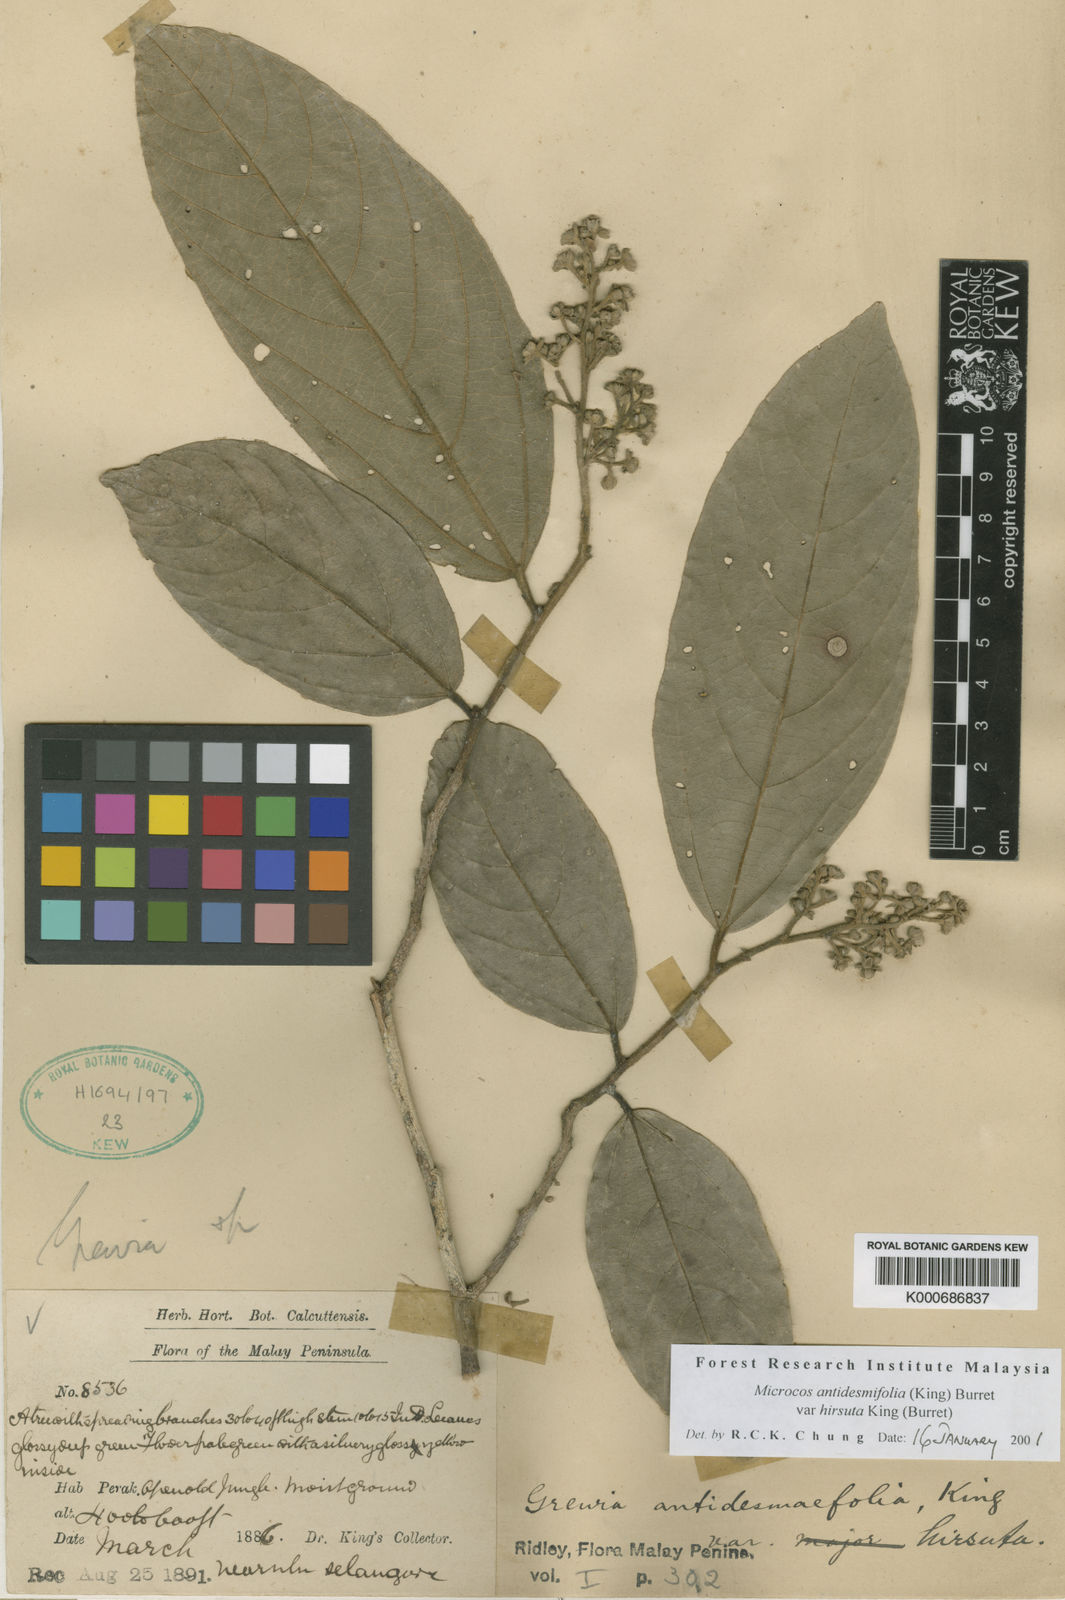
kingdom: Plantae
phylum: Tracheophyta
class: Magnoliopsida
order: Malvales
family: Malvaceae
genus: Microcos
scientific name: Microcos antidesmifolia
